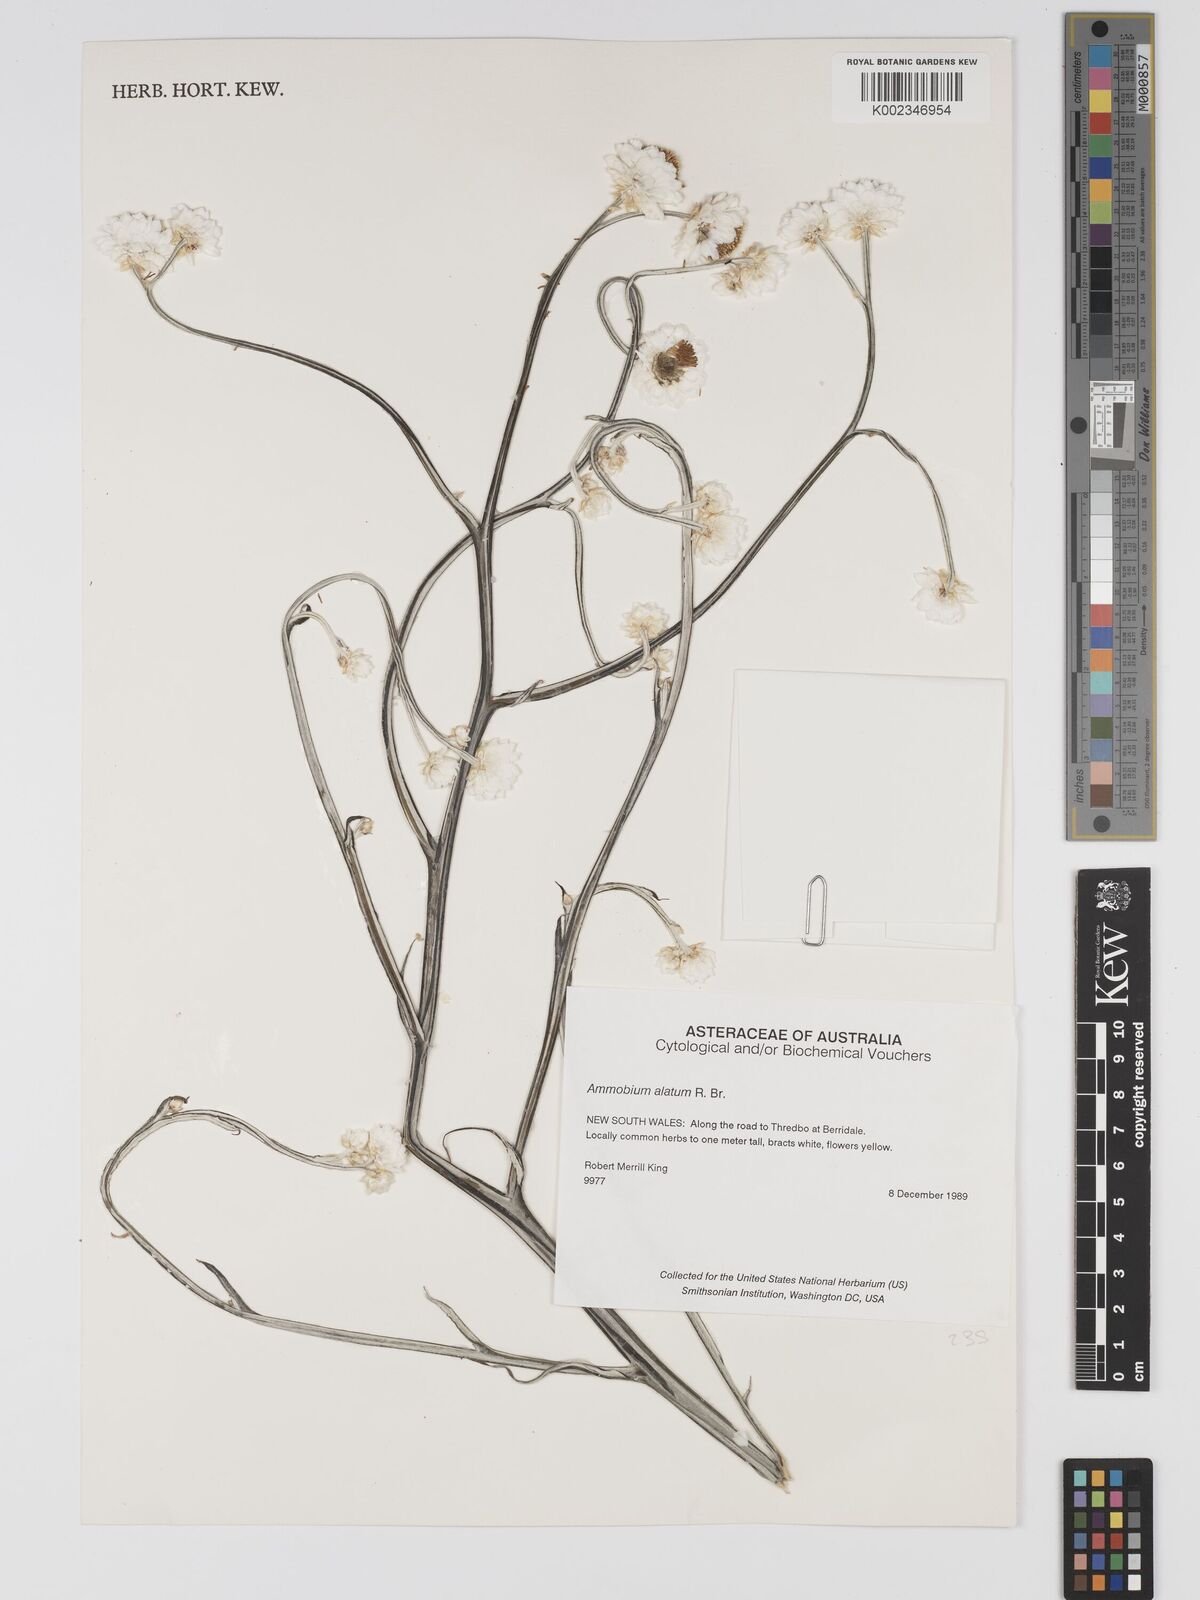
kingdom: Plantae
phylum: Tracheophyta
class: Magnoliopsida
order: Asterales
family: Asteraceae
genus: Ammobium
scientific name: Ammobium alatum
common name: Winged everlasting
